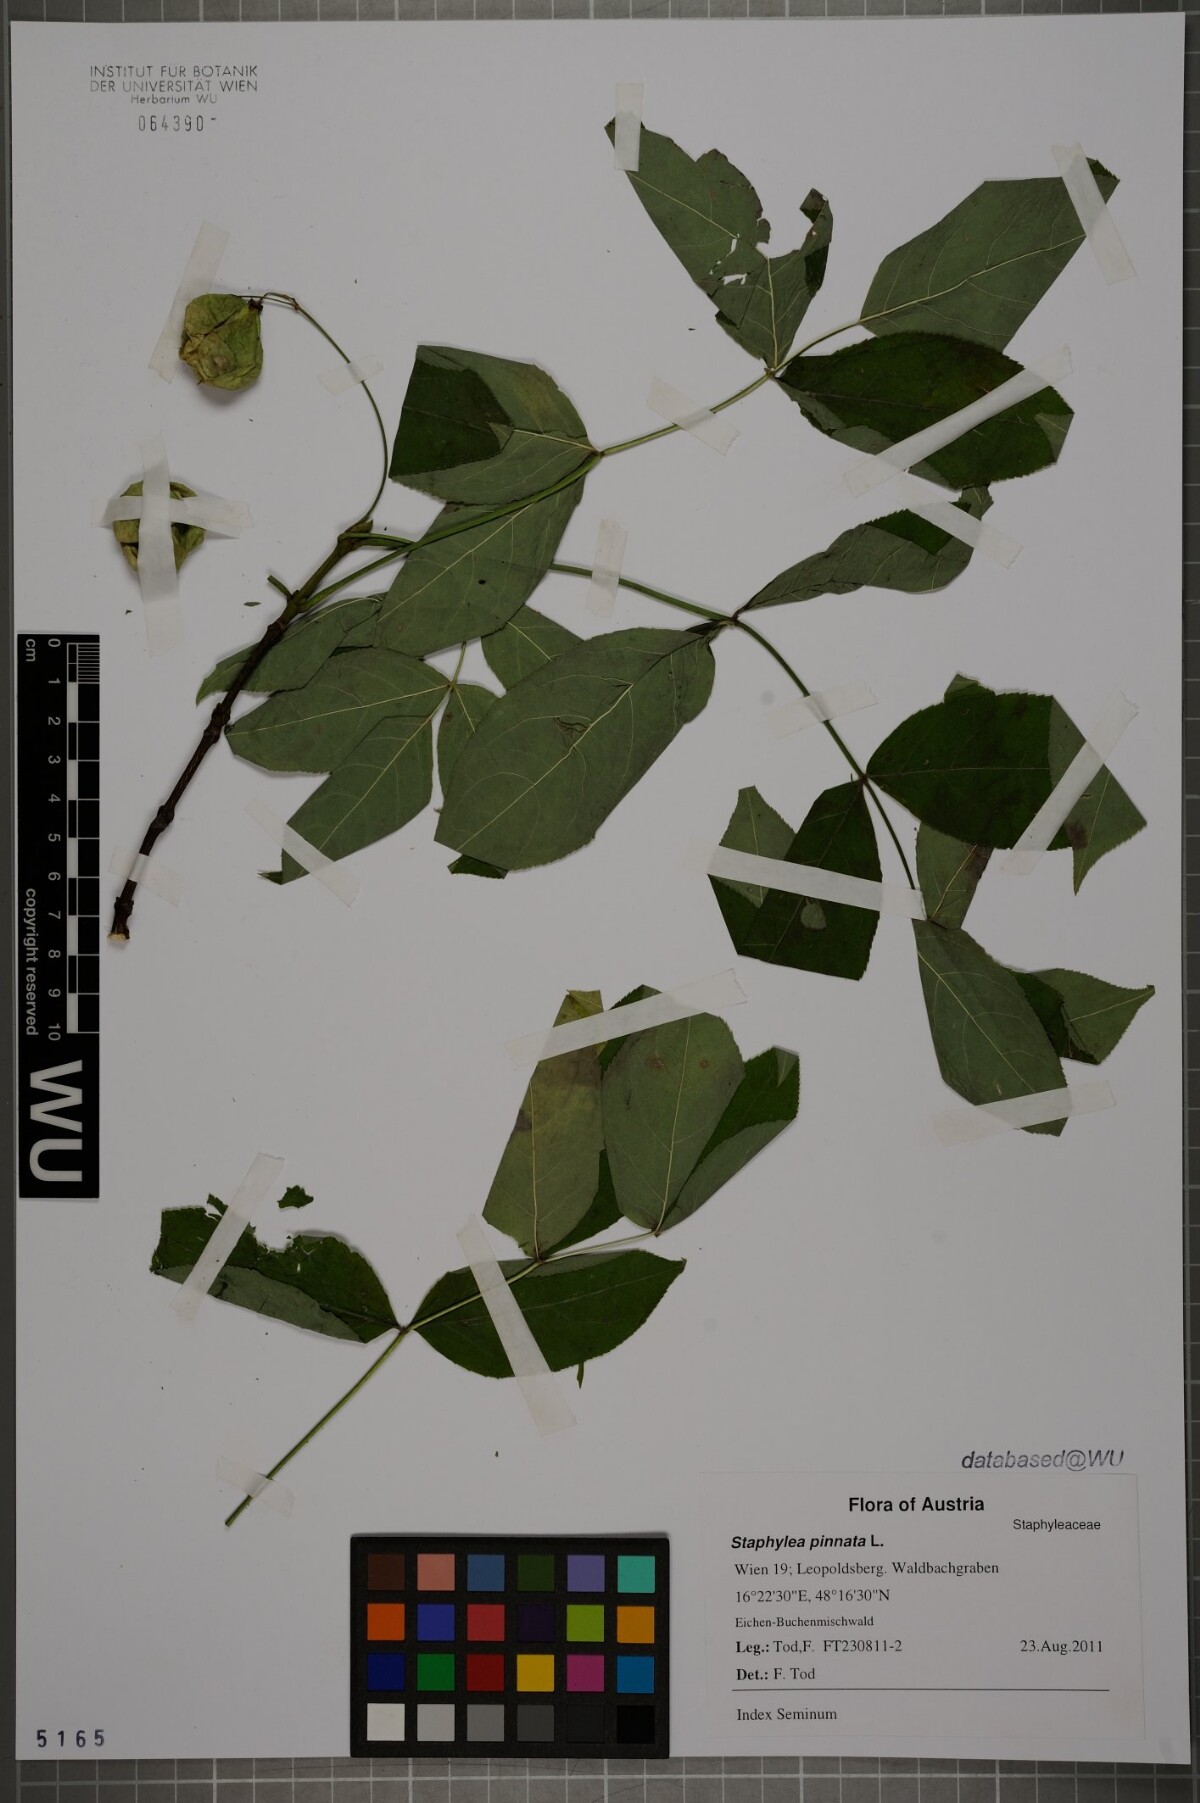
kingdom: Plantae
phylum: Tracheophyta
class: Magnoliopsida
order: Crossosomatales
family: Staphyleaceae
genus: Staphylea
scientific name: Staphylea pinnata
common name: Bladdernut
